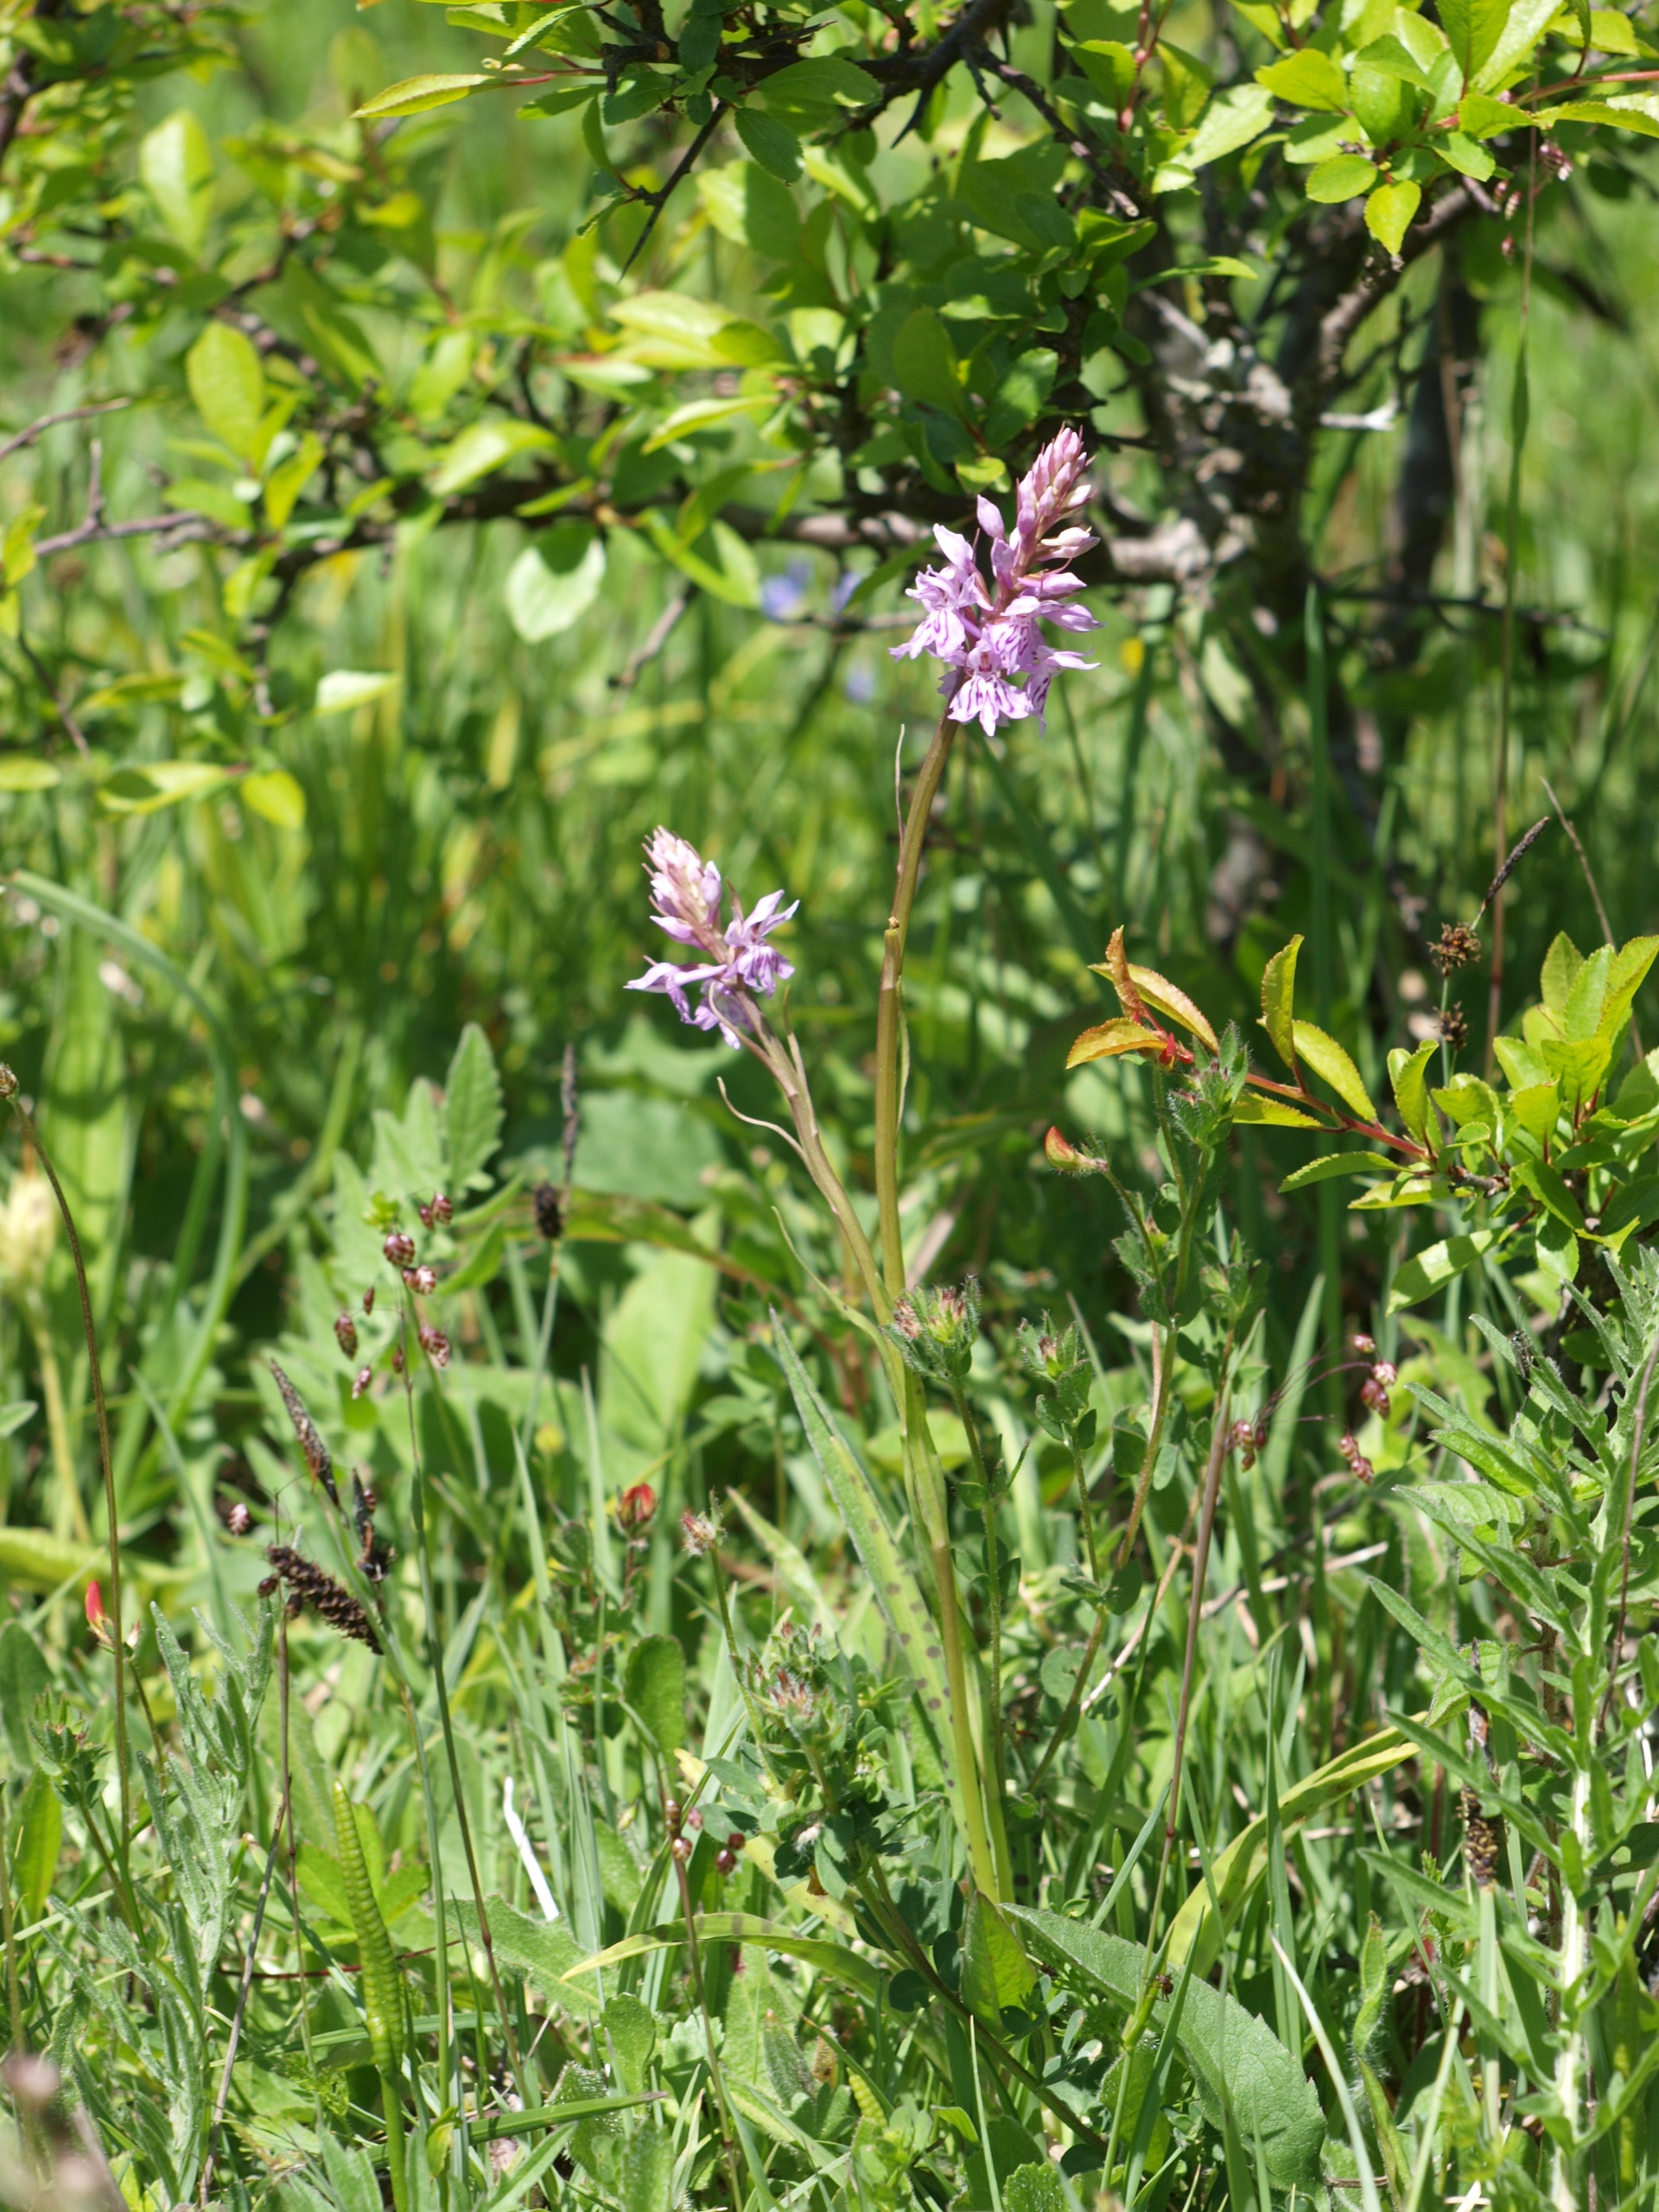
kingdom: Plantae
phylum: Tracheophyta
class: Liliopsida
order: Asparagales
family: Orchidaceae
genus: Dactylorhiza
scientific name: Dactylorhiza maculata
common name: Skov-gøgeurt
